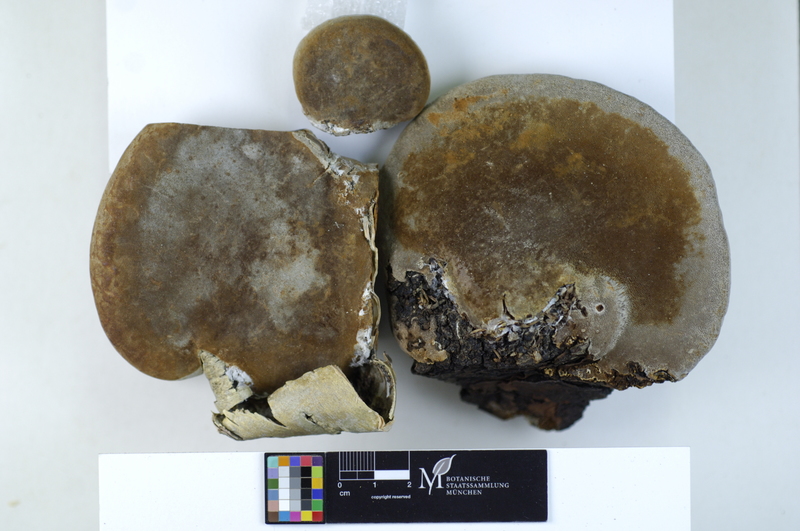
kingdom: Fungi
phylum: Basidiomycota
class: Agaricomycetes
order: Hymenochaetales
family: Hymenochaetaceae
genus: Phellinus
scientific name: Phellinus cinereus
